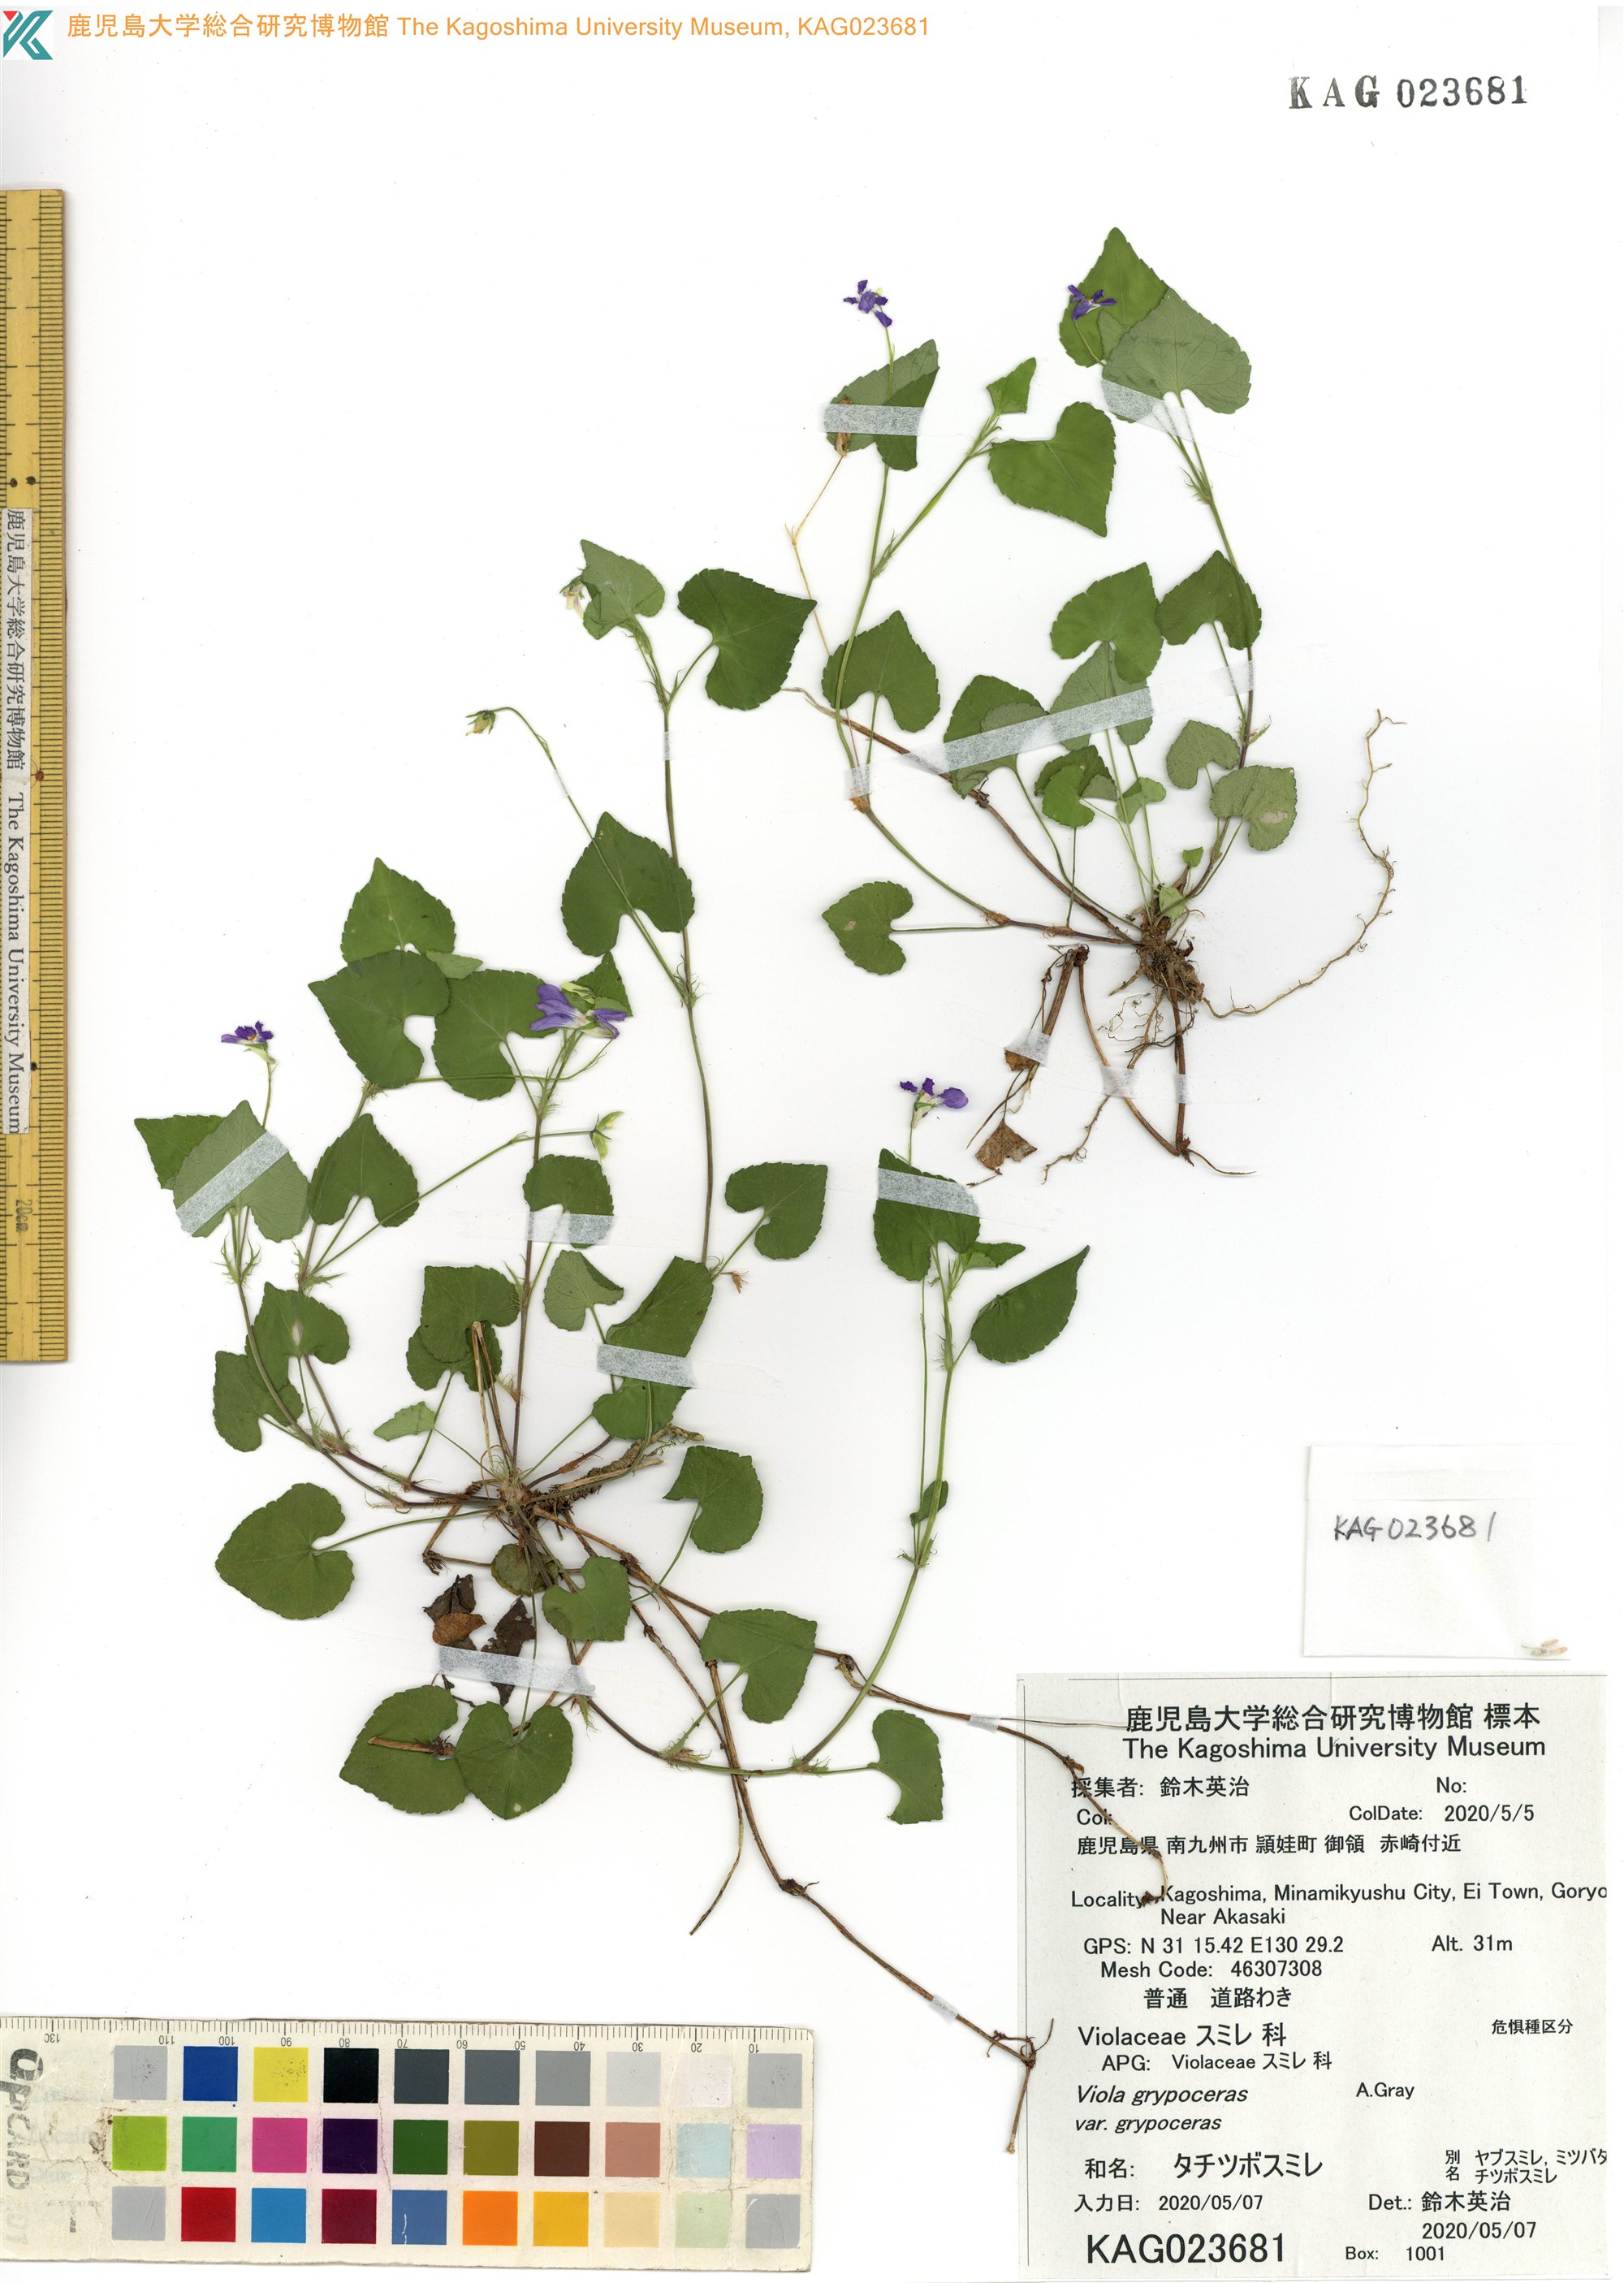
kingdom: Plantae
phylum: Tracheophyta
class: Magnoliopsida
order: Malpighiales
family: Violaceae
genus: Viola
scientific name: Viola grypoceras
